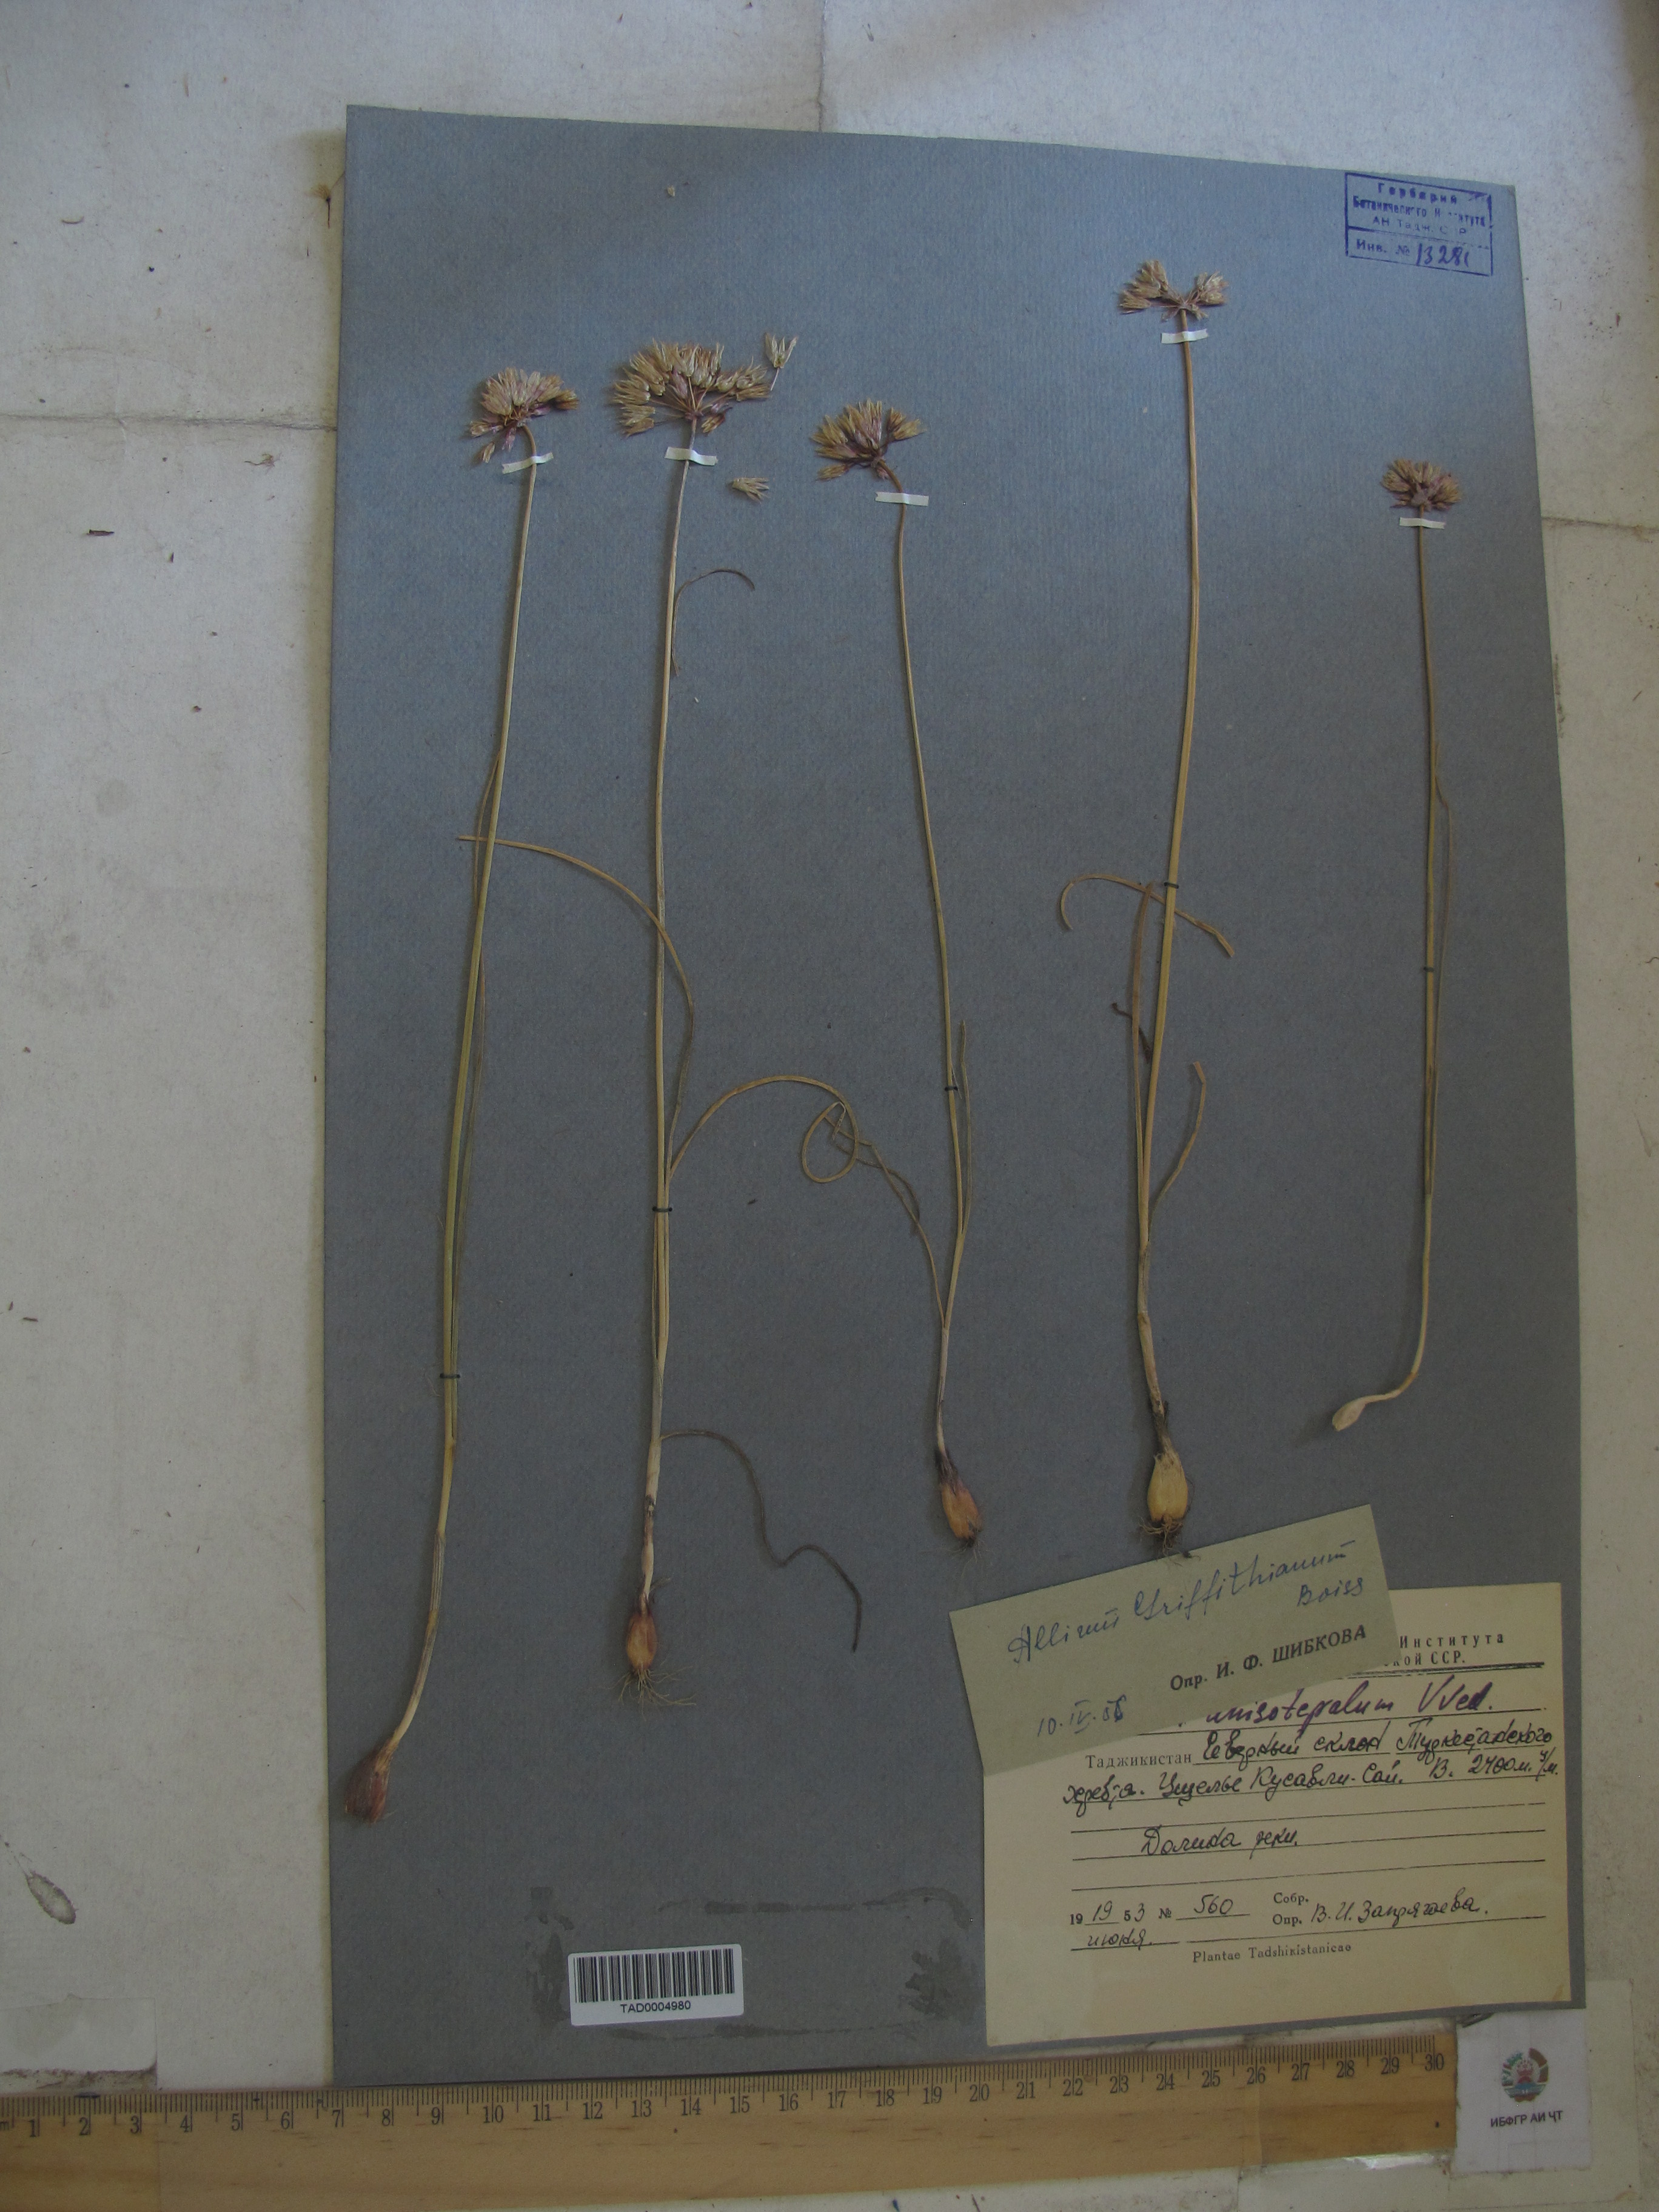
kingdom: Plantae
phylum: Tracheophyta
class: Liliopsida
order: Asparagales
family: Amaryllidaceae
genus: Allium
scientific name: Allium griffithianum
